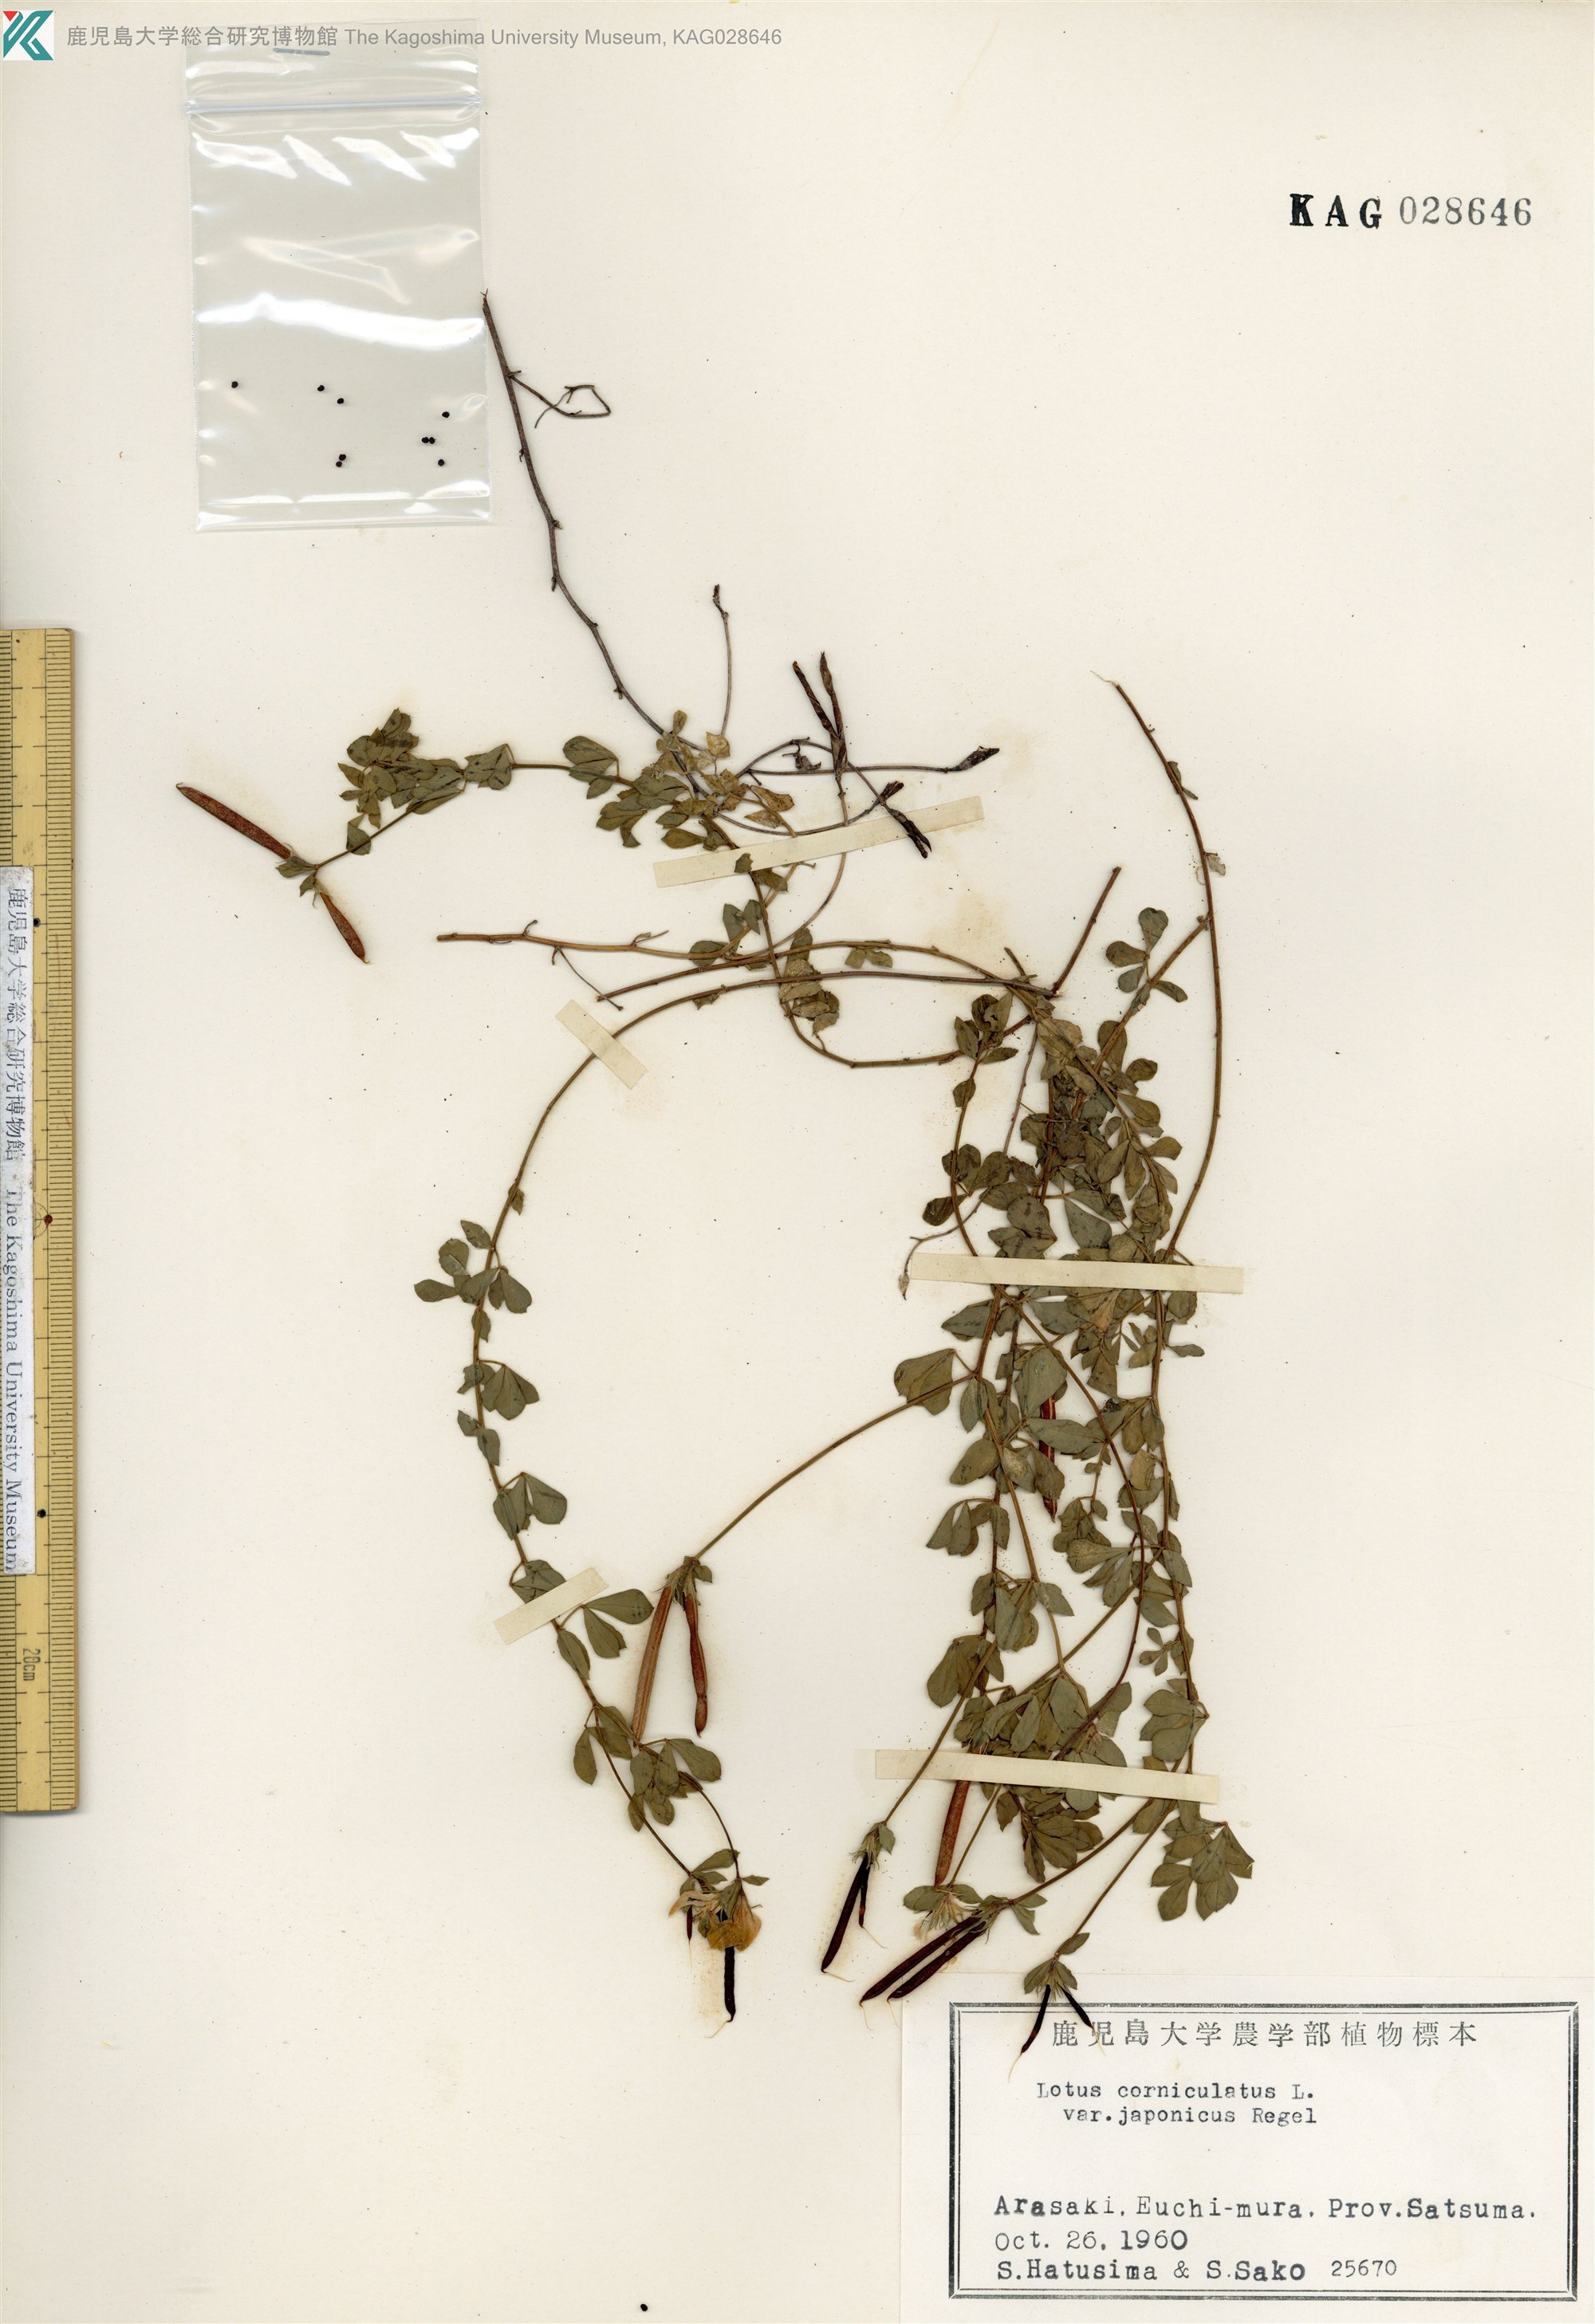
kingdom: Plantae
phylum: Tracheophyta
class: Magnoliopsida
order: Fabales
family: Fabaceae
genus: Lotus
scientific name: Lotus japonicus
